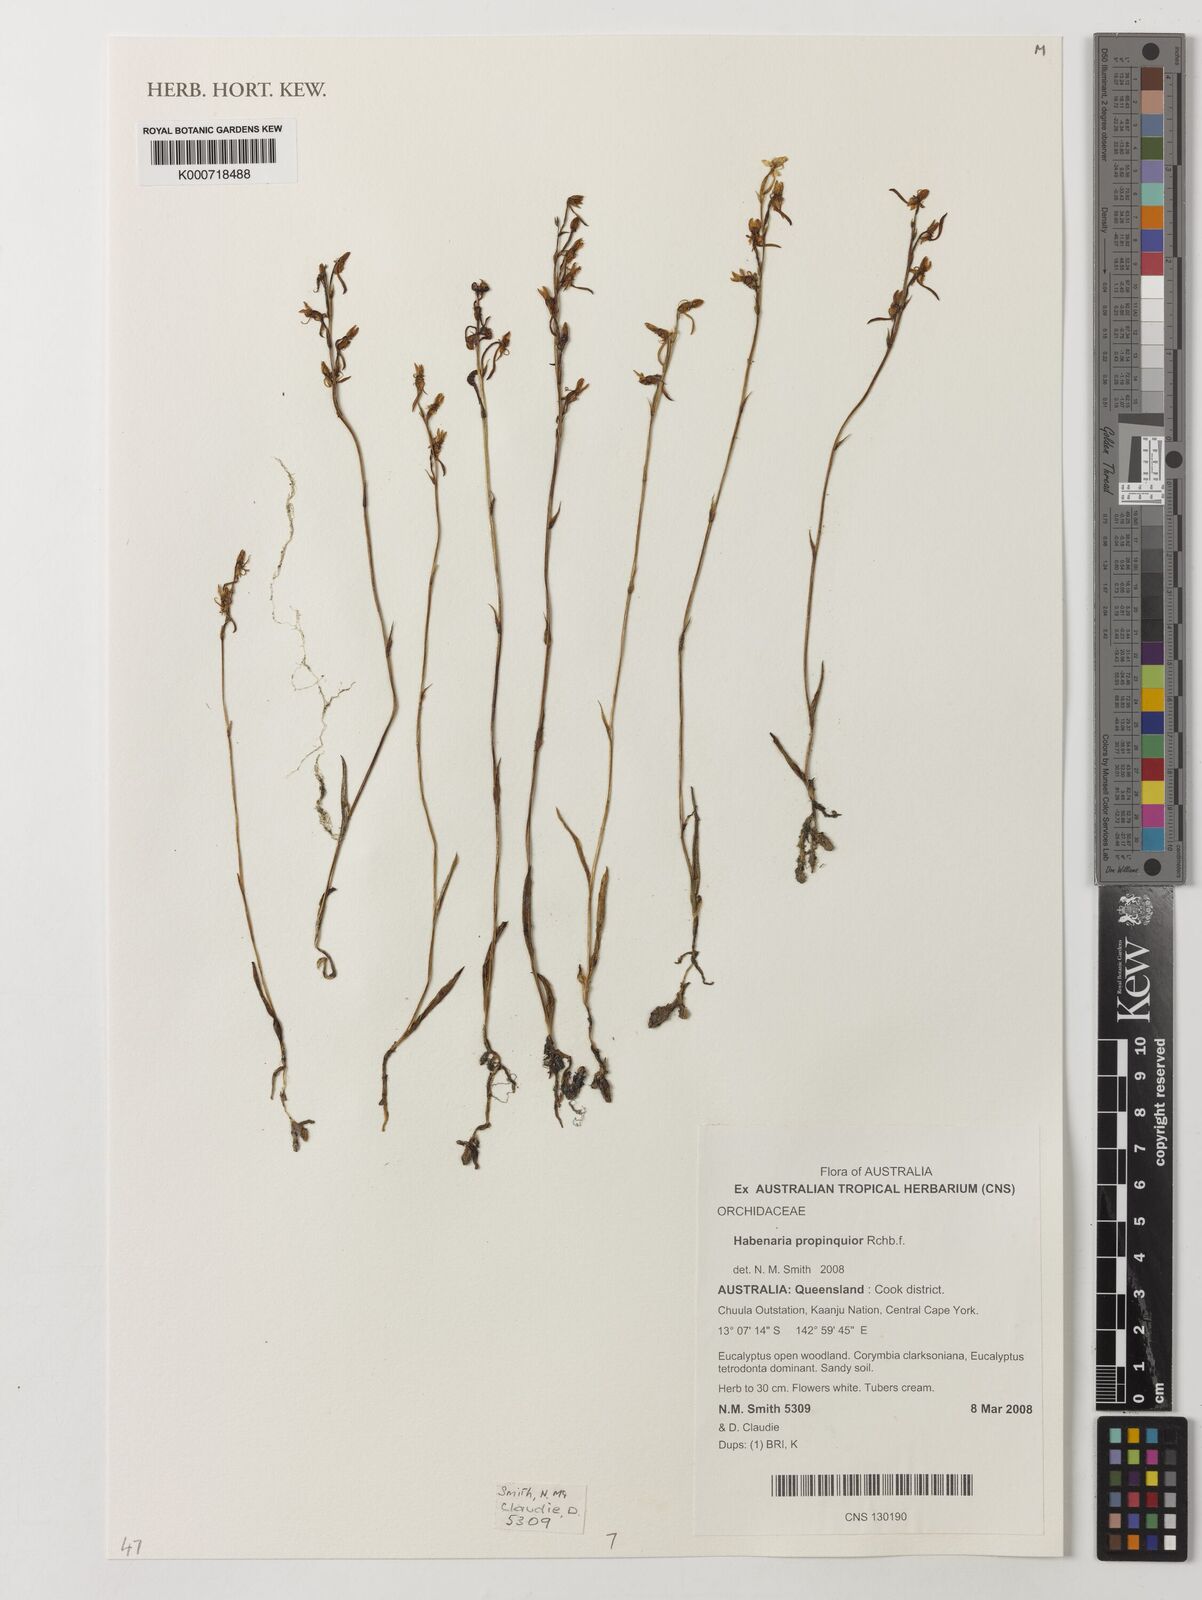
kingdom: Plantae
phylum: Tracheophyta
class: Liliopsida
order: Asparagales
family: Orchidaceae
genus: Habenaria
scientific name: Habenaria propinquior
